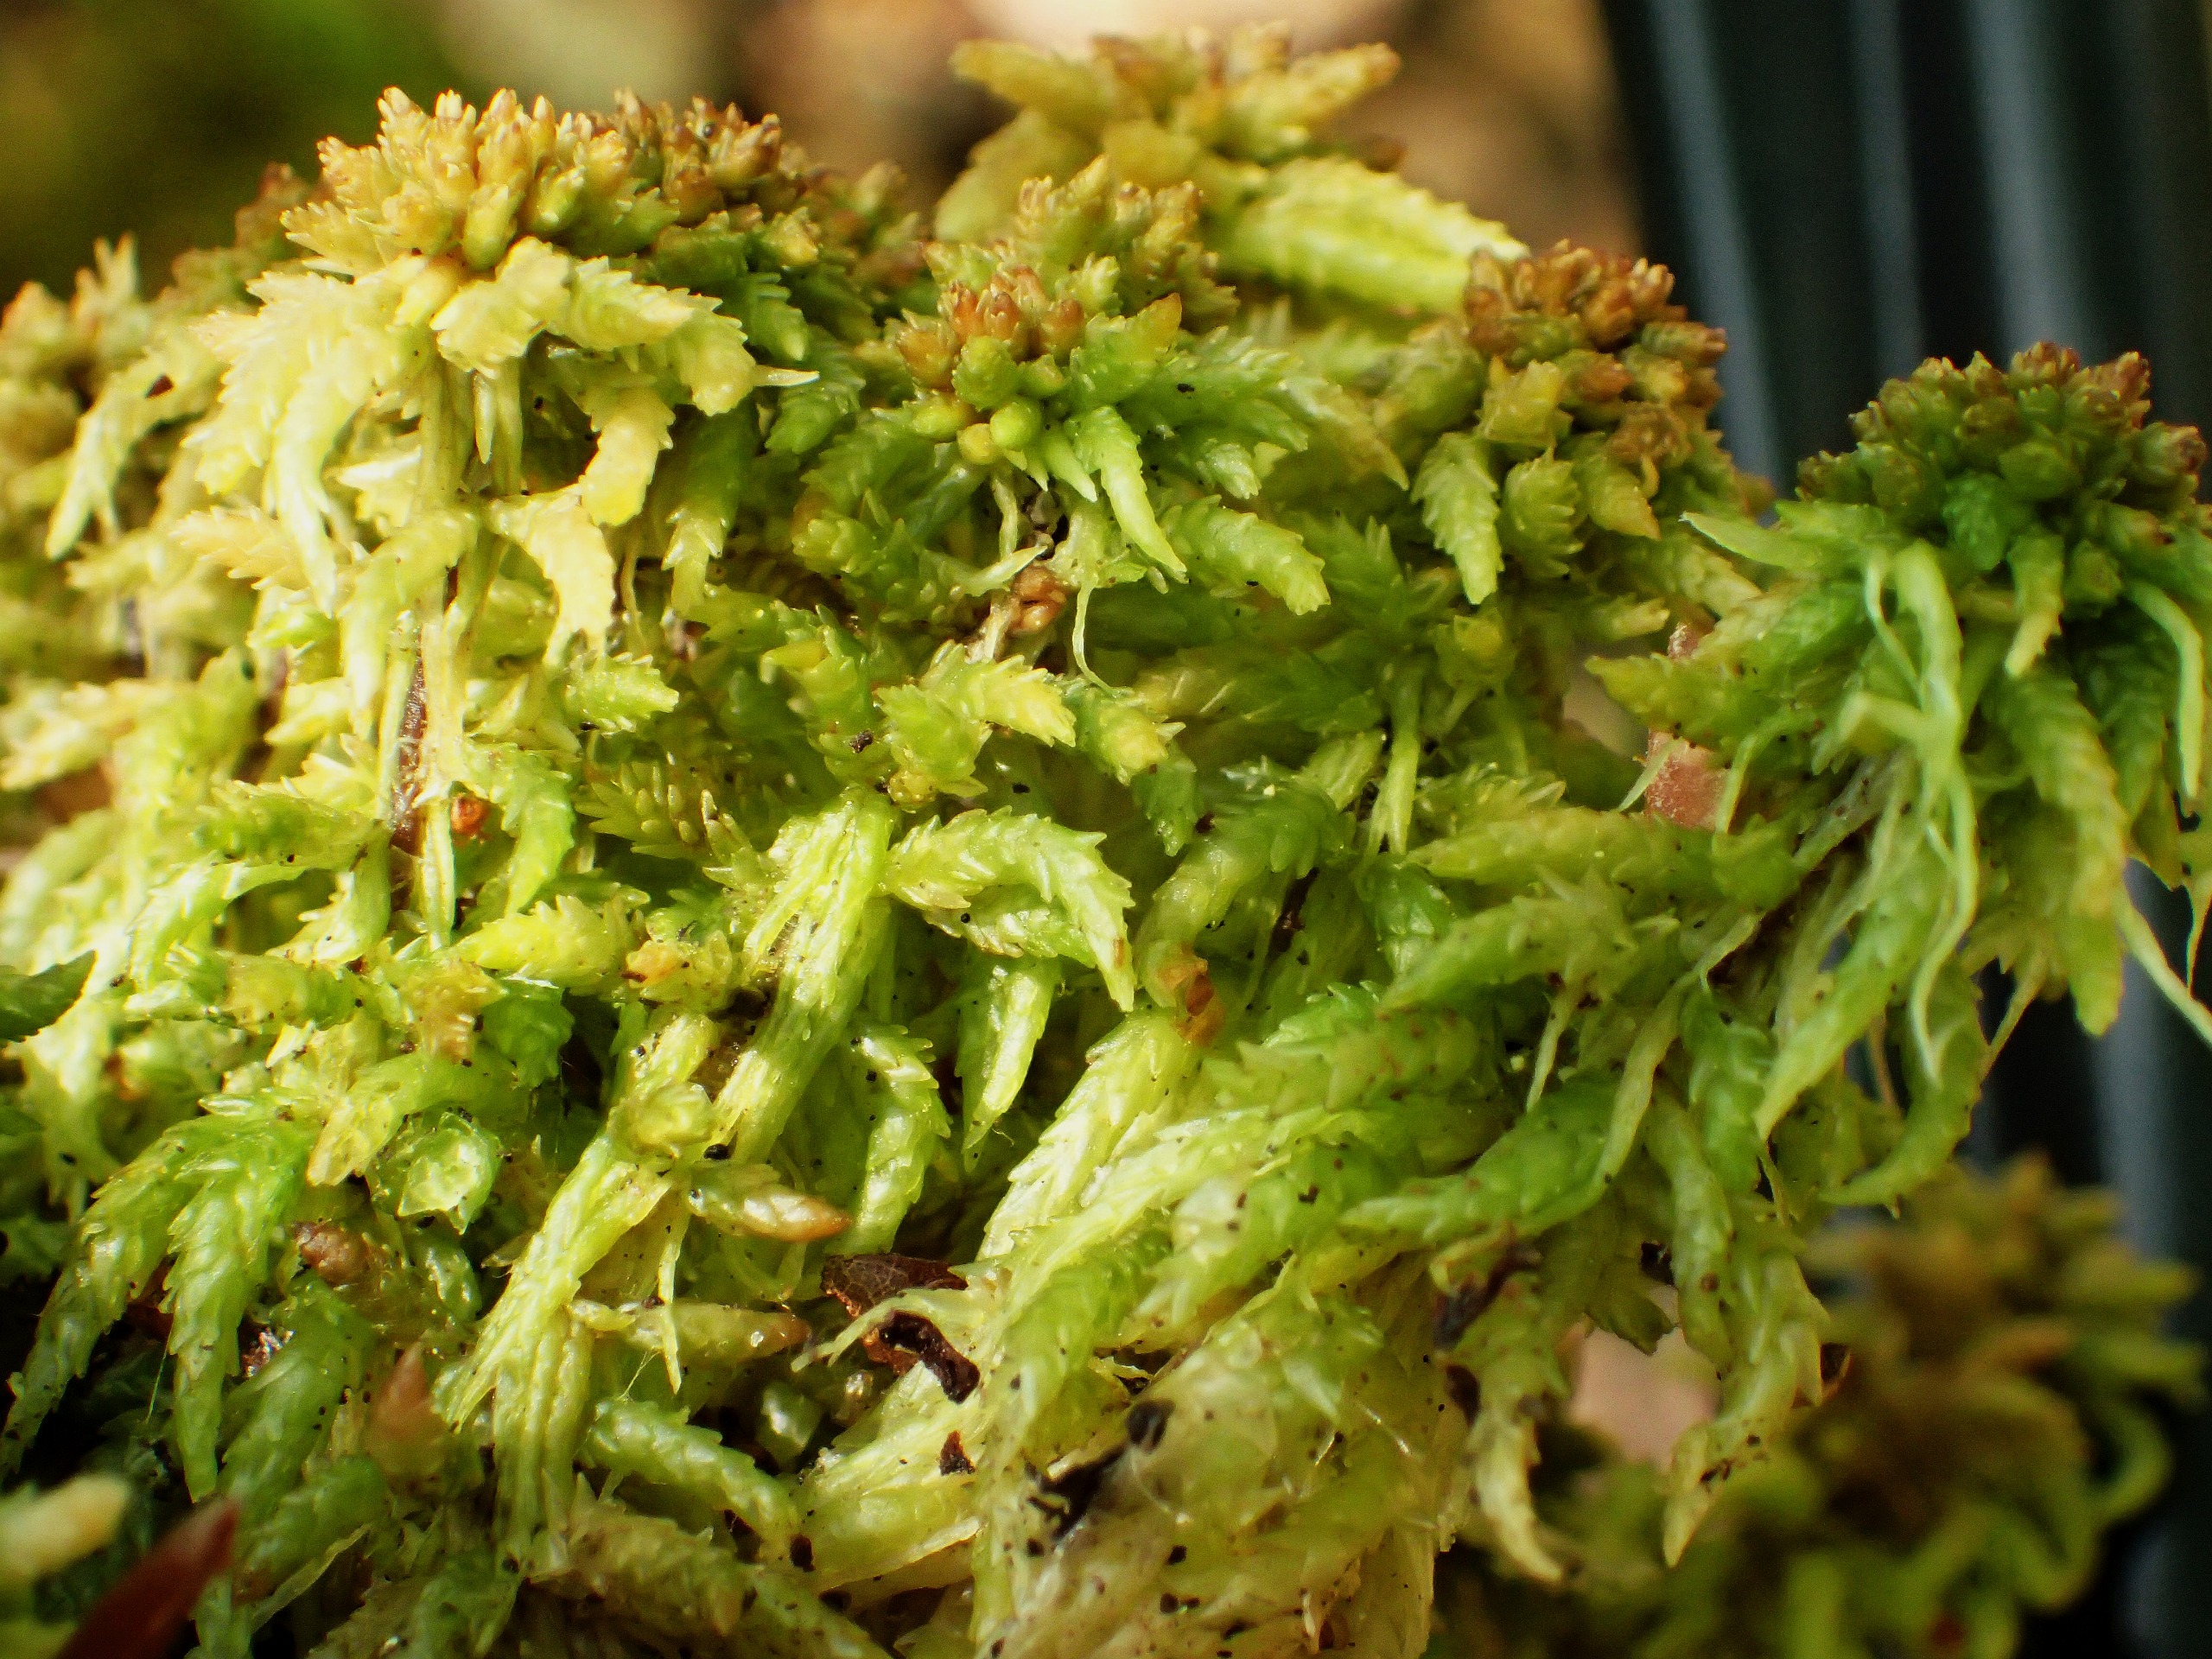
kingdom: Plantae
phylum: Bryophyta
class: Sphagnopsida
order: Sphagnales
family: Sphagnaceae
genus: Sphagnum
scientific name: Sphagnum palustre
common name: Almindelig tørvemos
